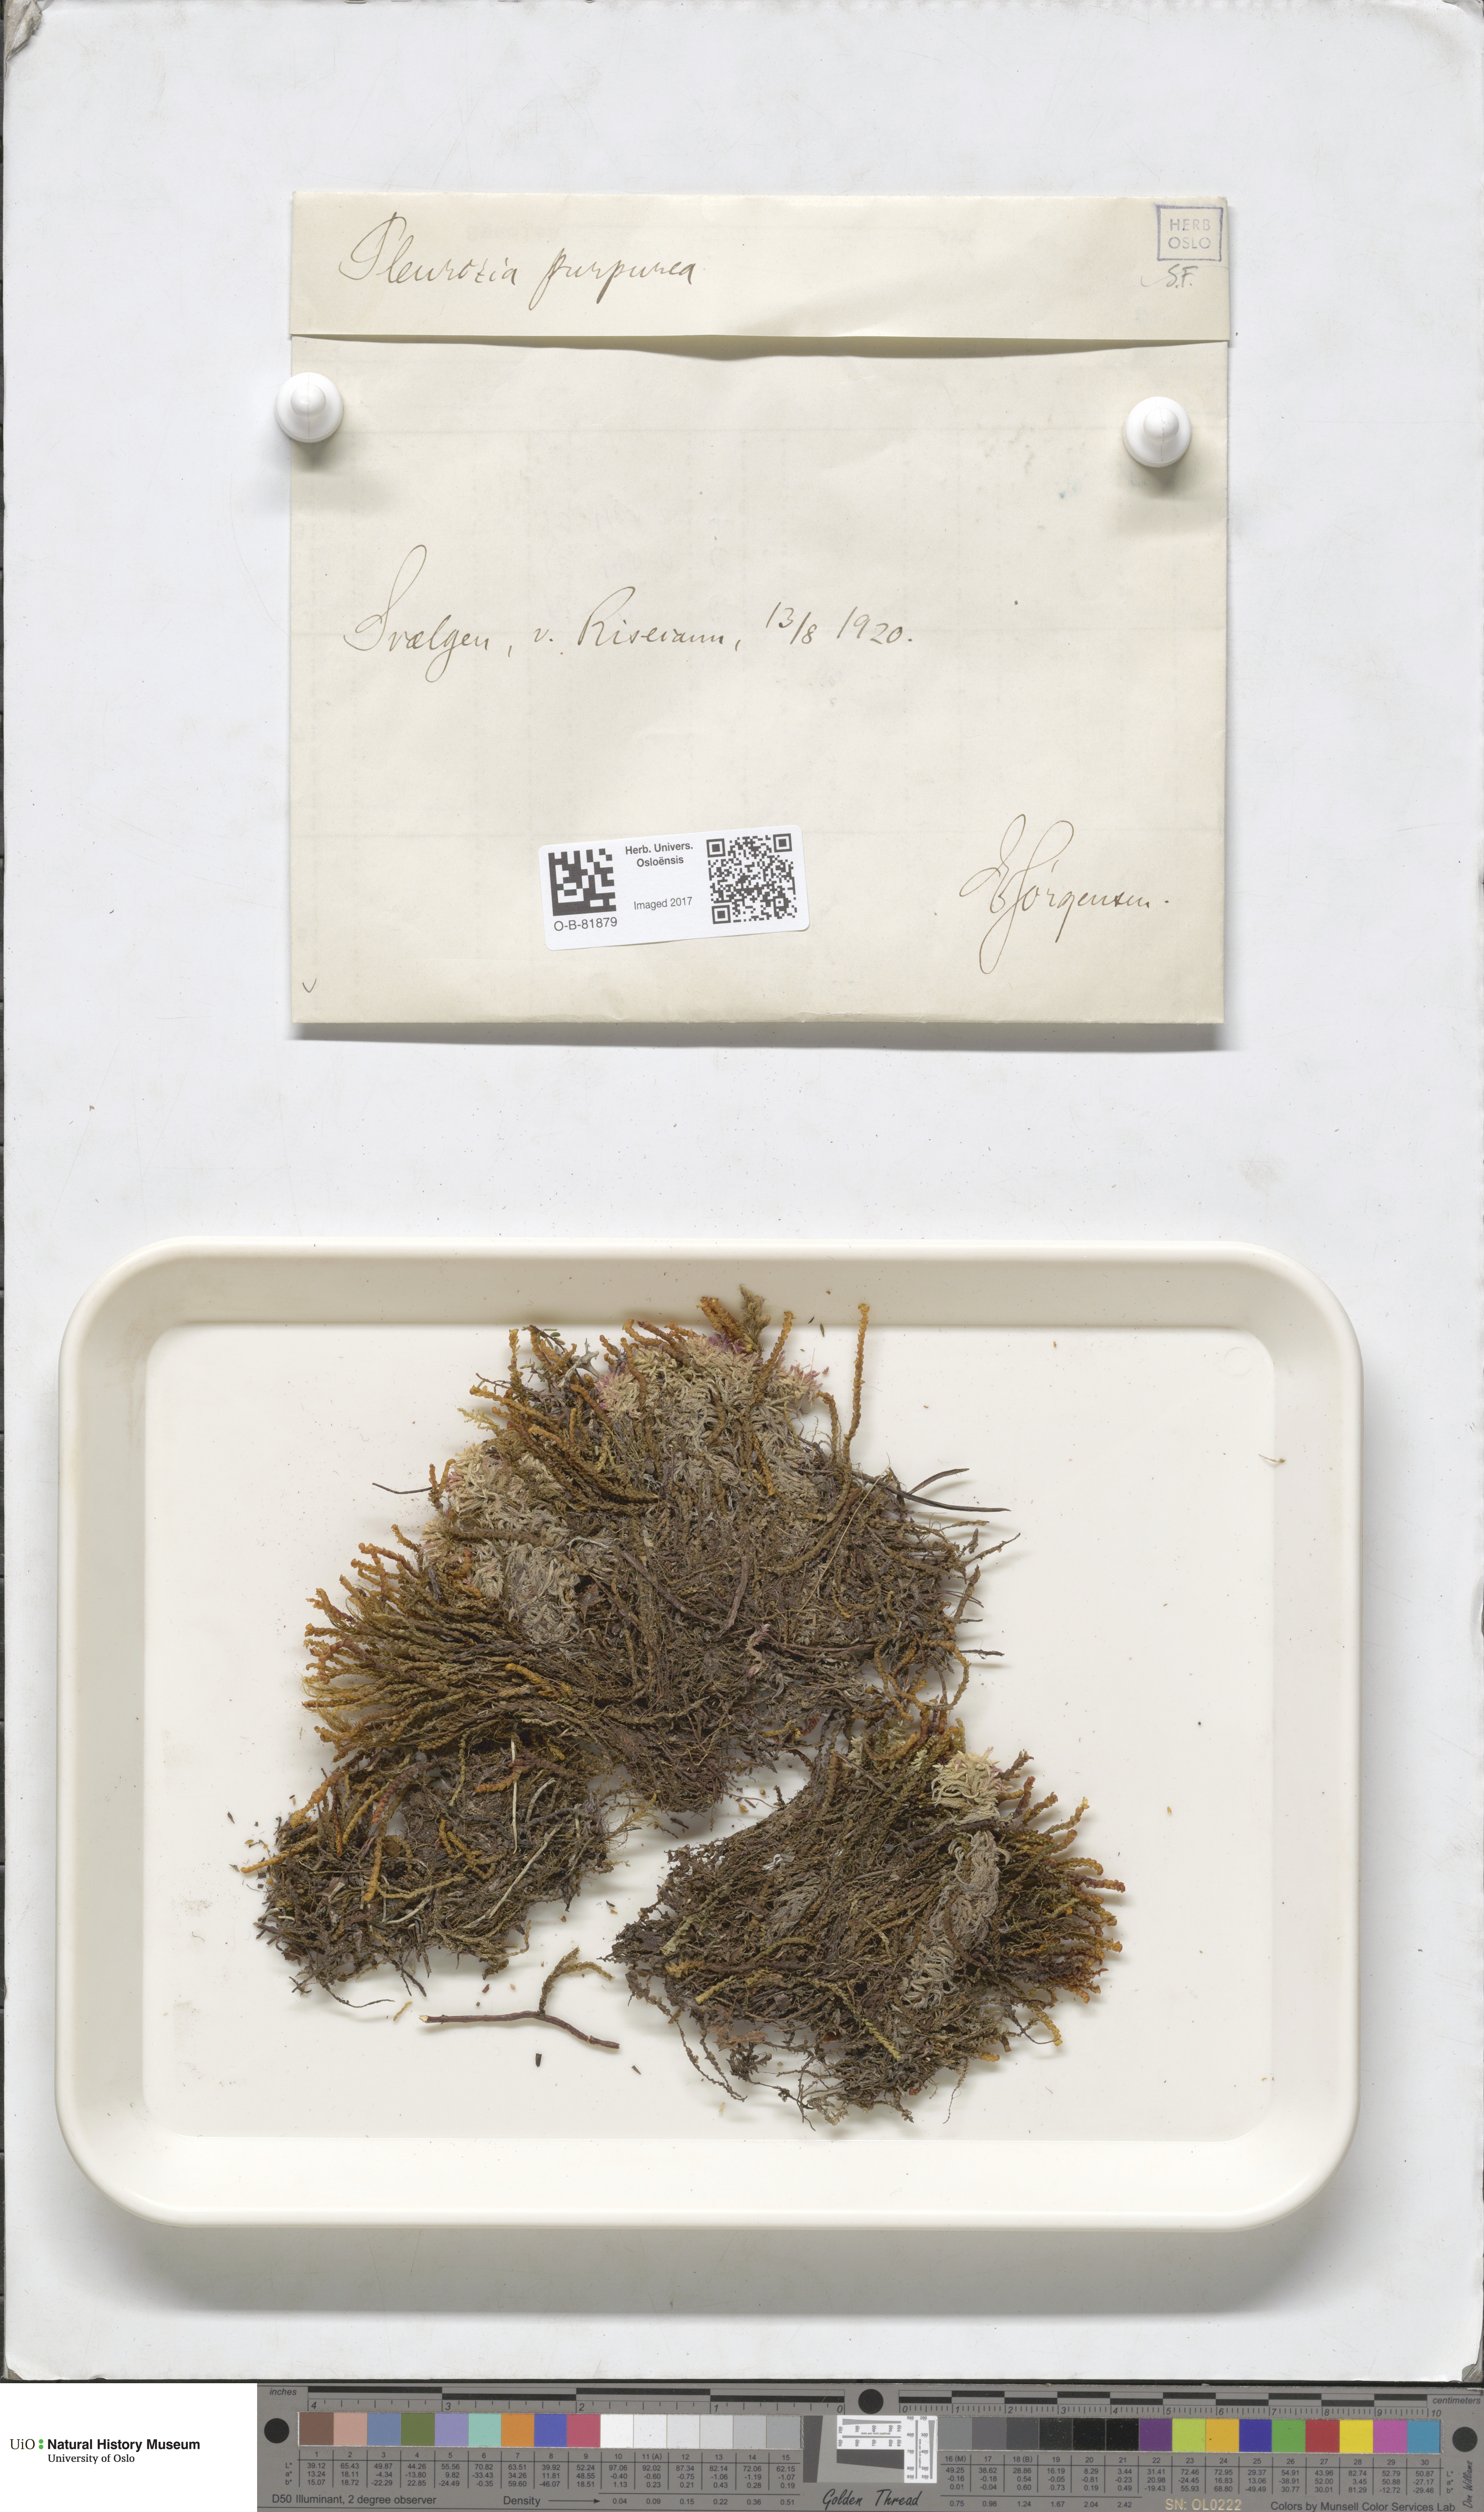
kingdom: Plantae
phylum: Marchantiophyta
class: Jungermanniopsida
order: Pleuroziales
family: Pleuroziaceae
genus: Pleurozia
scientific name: Pleurozia purpurea
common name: Purple spoonwort
